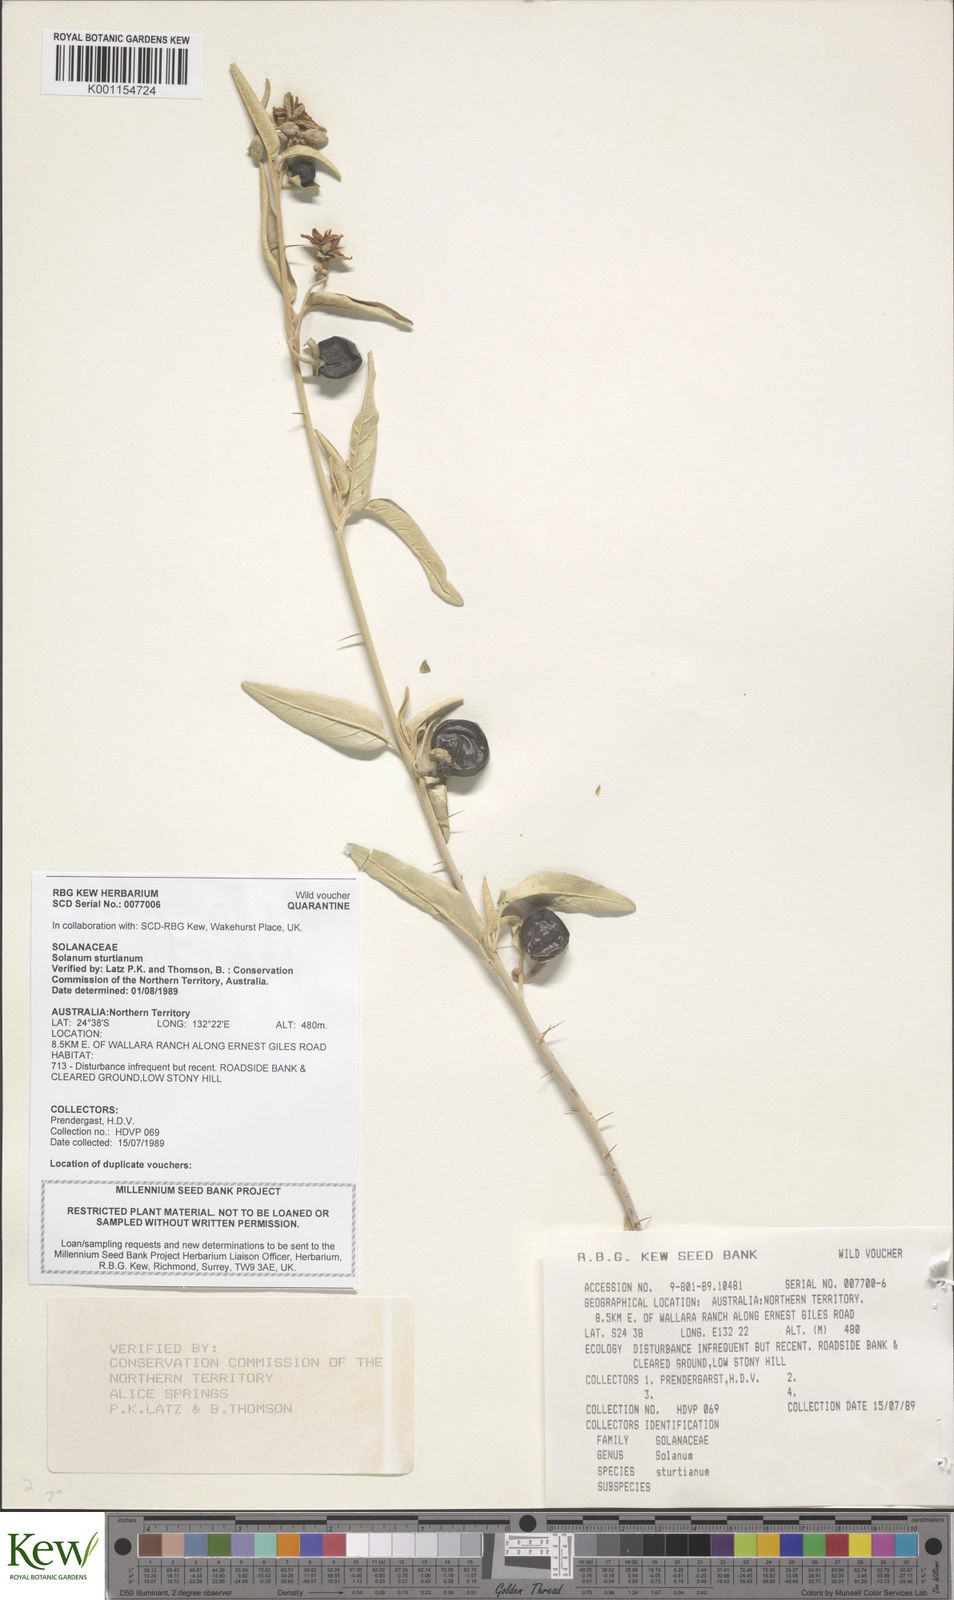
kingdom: Plantae
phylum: Tracheophyta
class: Magnoliopsida
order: Solanales
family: Solanaceae
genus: Solanum
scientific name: Solanum sturtianum
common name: Thargomindah nightshade
